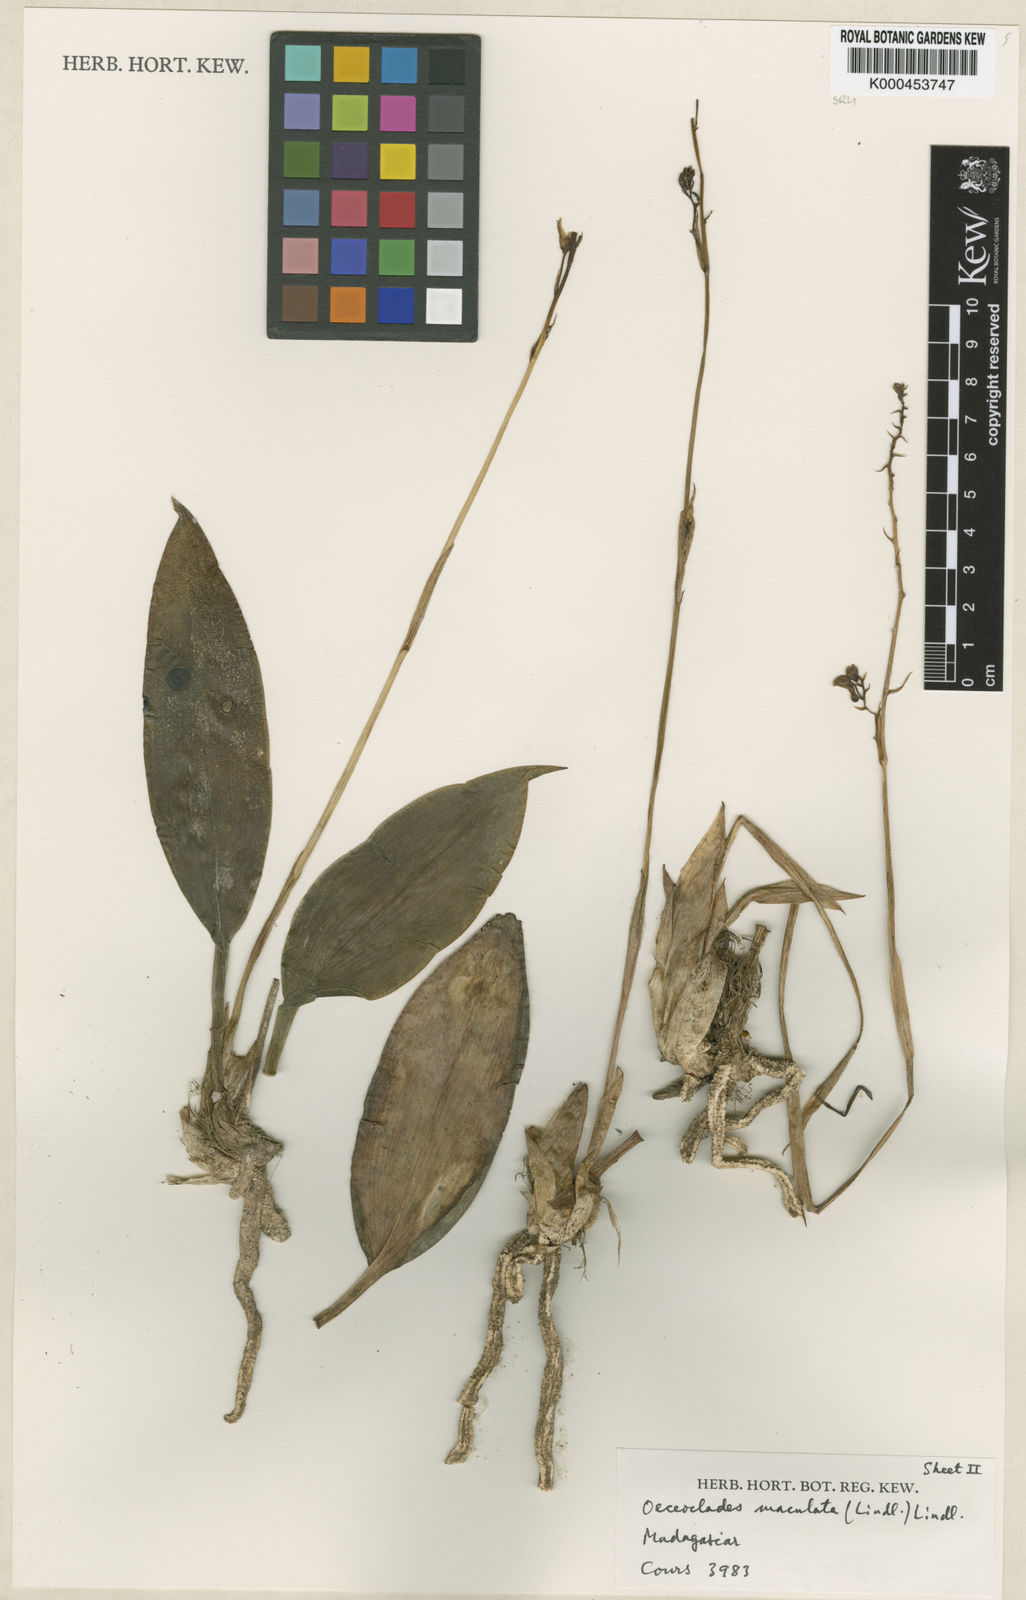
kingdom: Plantae
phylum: Tracheophyta
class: Liliopsida
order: Asparagales
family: Orchidaceae
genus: Eulophia
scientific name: Eulophia maculata
